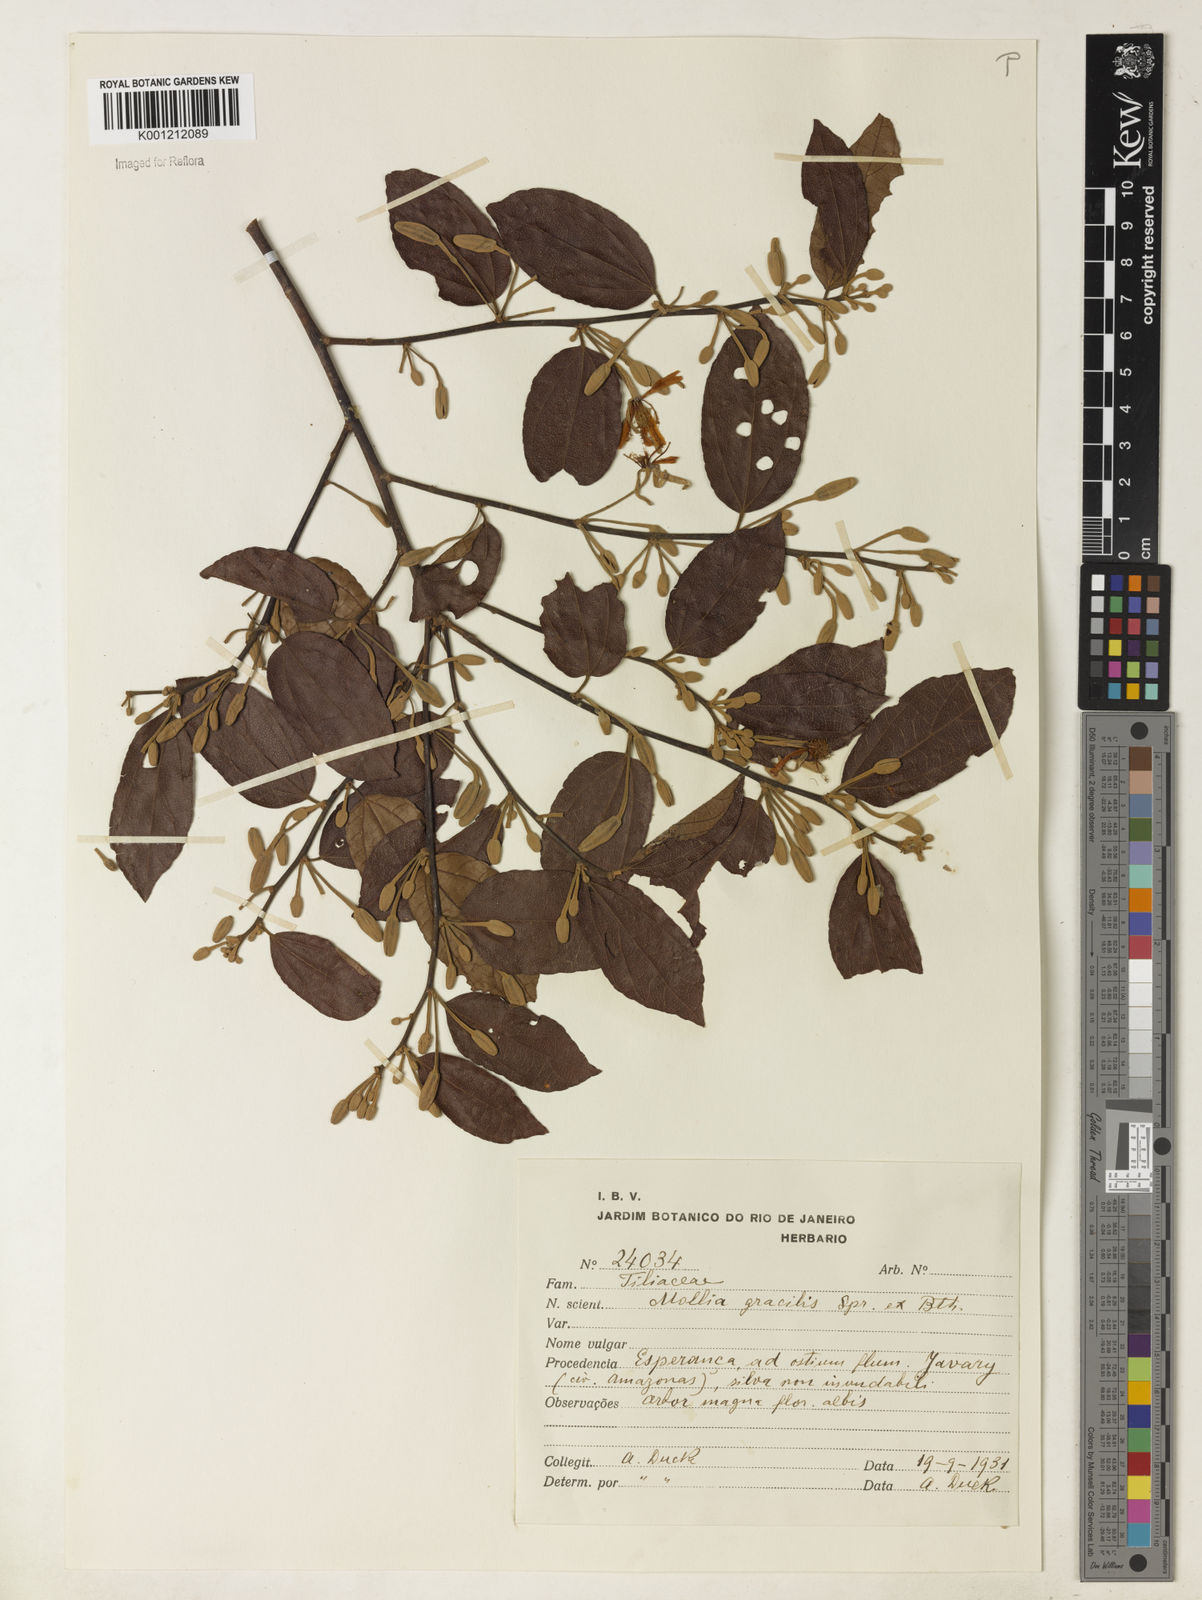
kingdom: Plantae
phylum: Tracheophyta
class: Magnoliopsida
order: Malvales
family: Malvaceae
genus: Mollia
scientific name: Mollia gracilis
